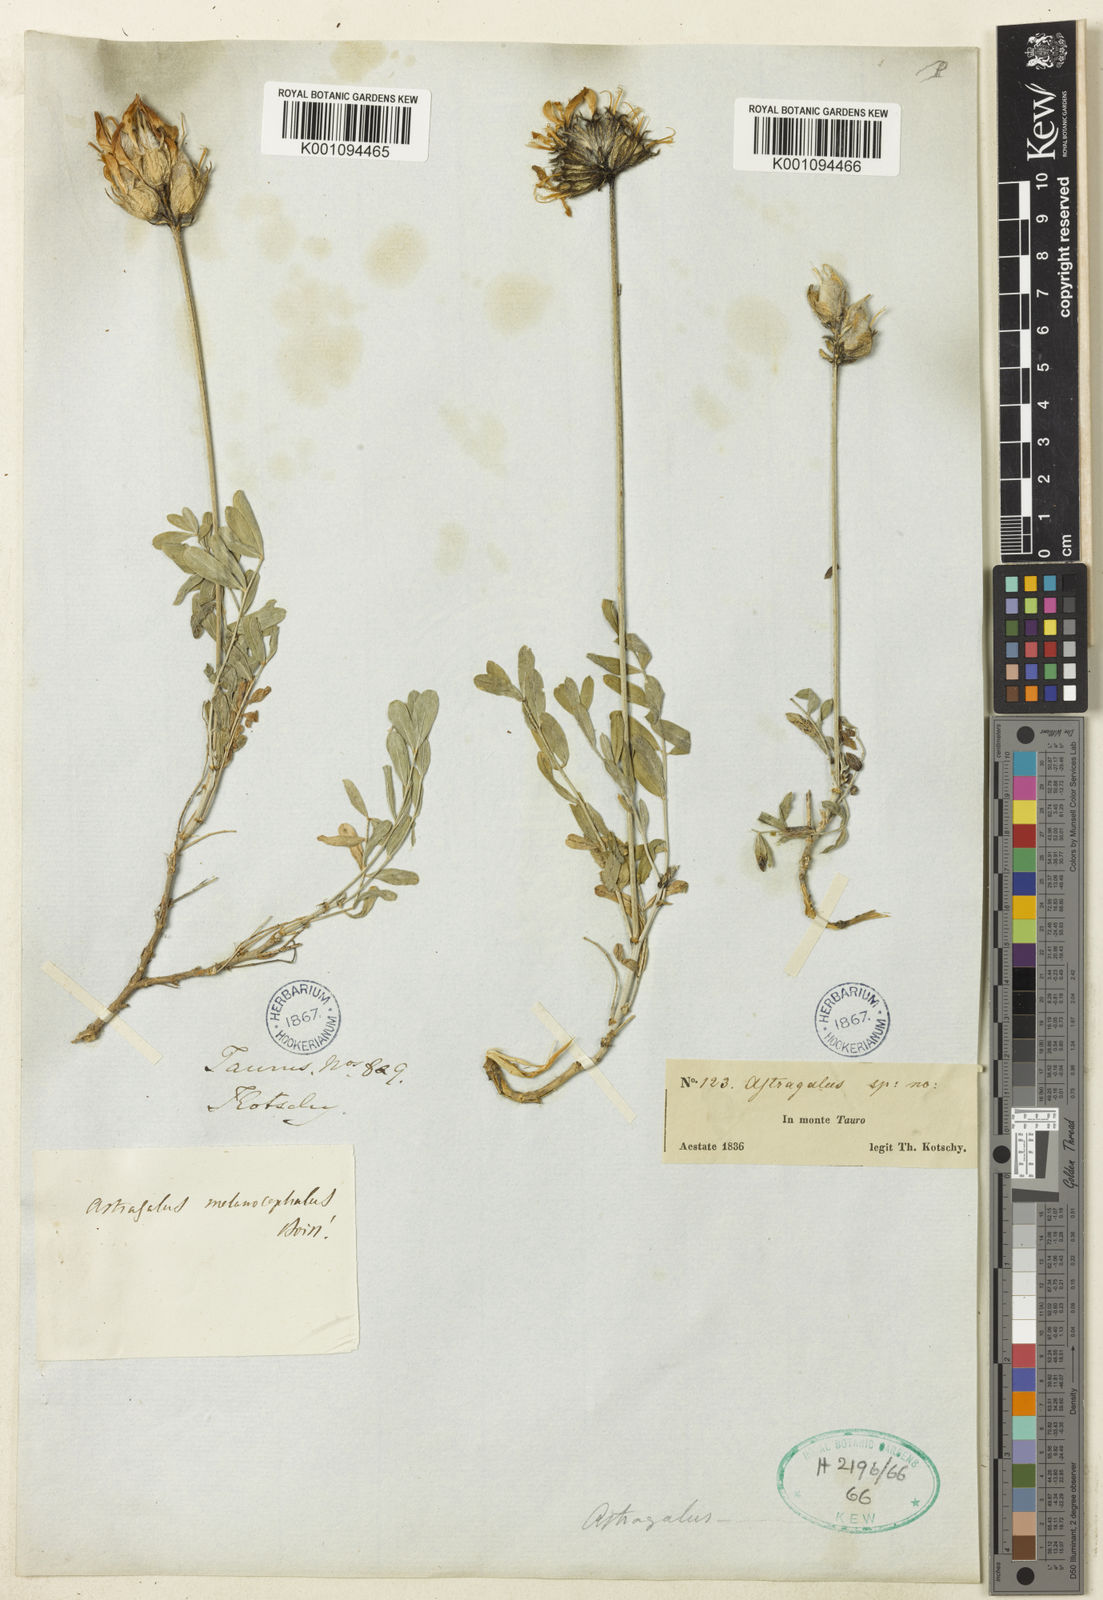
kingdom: Plantae
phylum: Tracheophyta
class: Magnoliopsida
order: Fabales
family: Fabaceae
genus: Astragalus
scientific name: Astragalus
